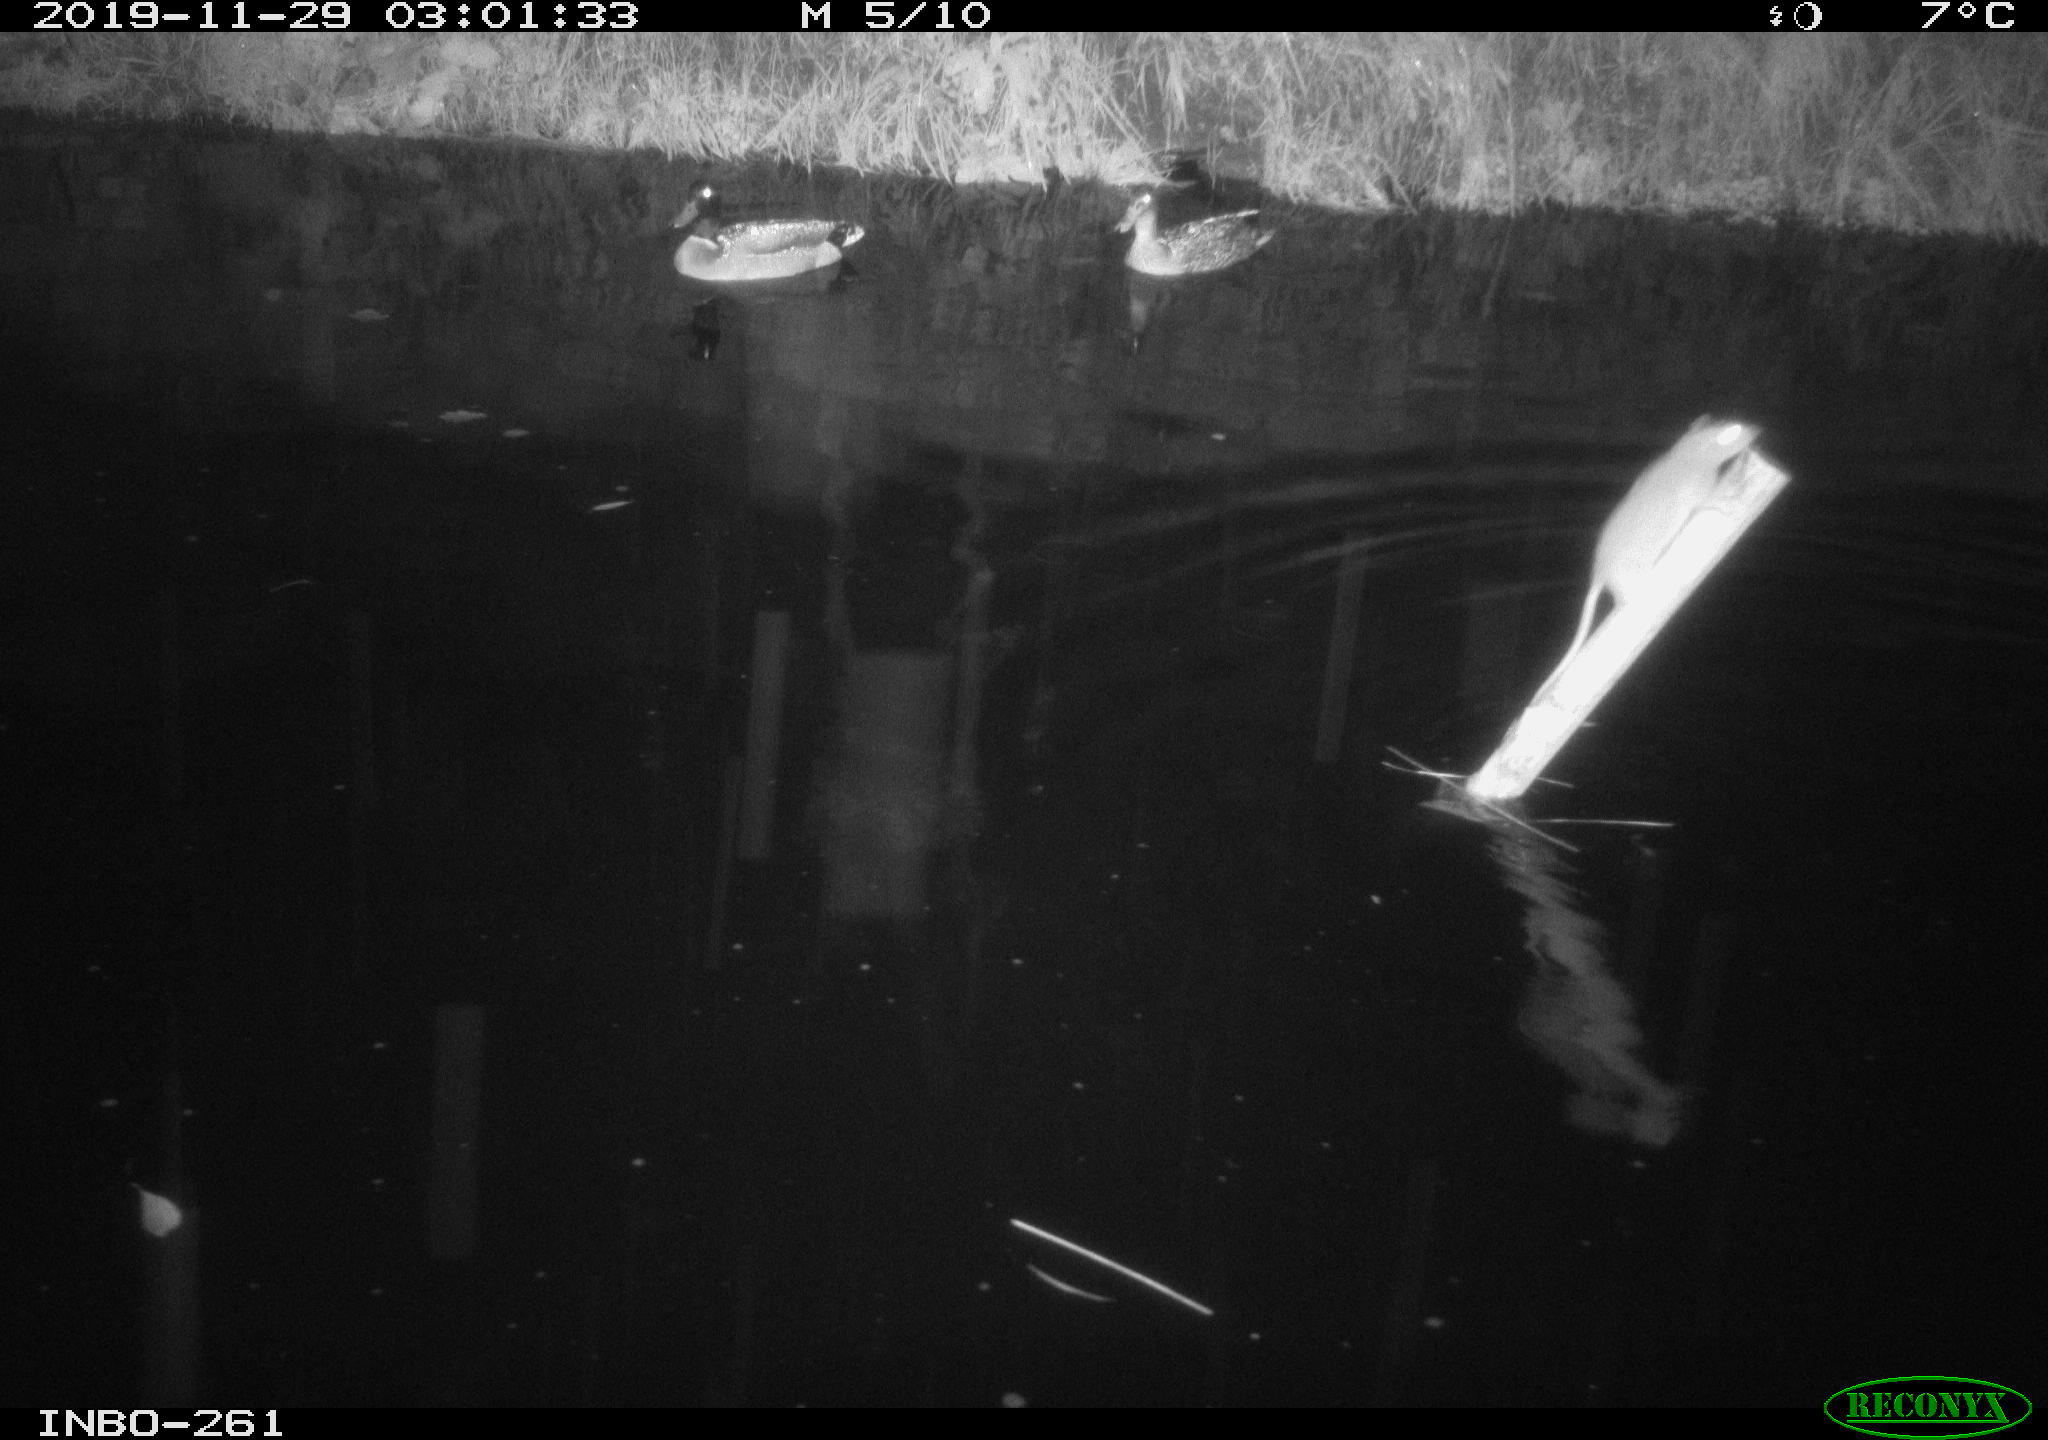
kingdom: Animalia
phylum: Chordata
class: Aves
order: Anseriformes
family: Anatidae
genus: Anas
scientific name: Anas platyrhynchos
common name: Mallard
